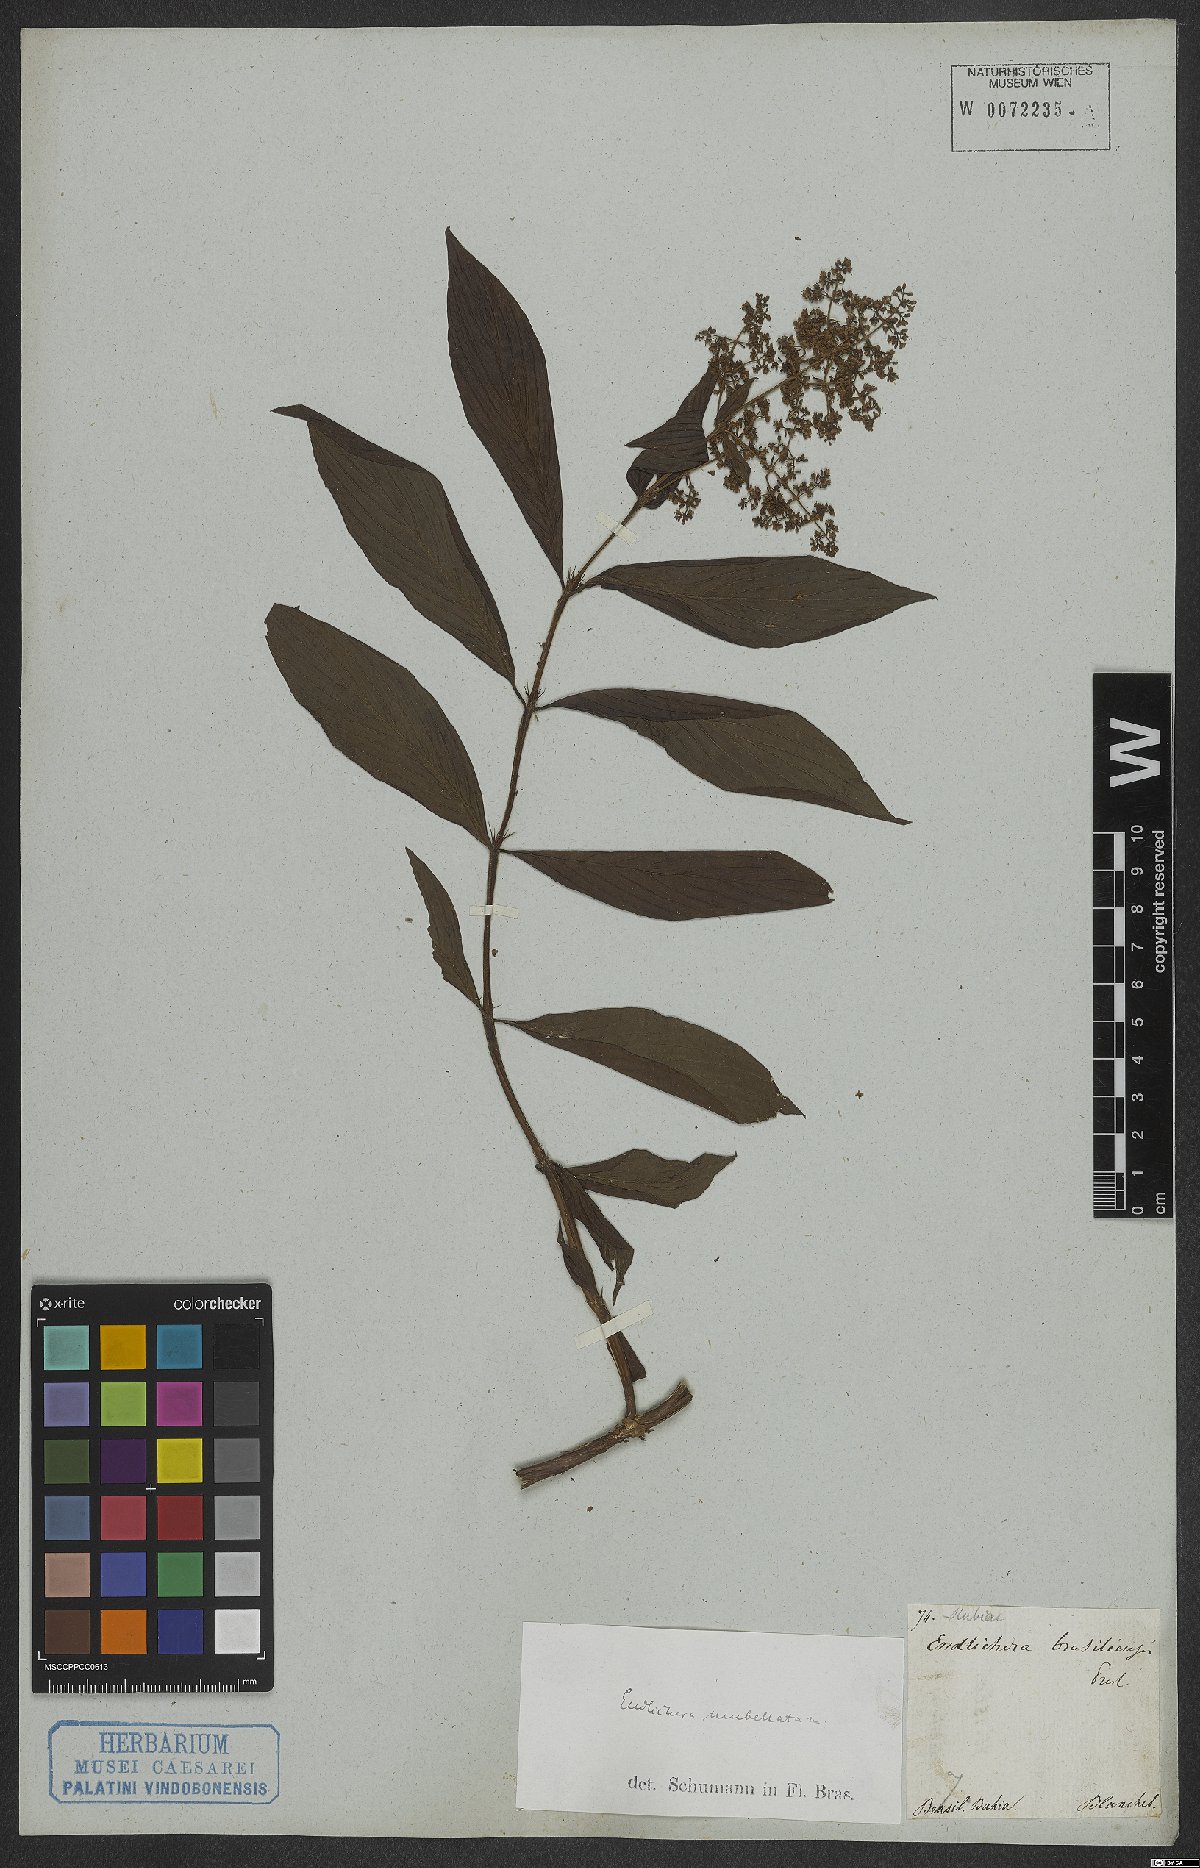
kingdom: Plantae
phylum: Tracheophyta
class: Magnoliopsida
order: Gentianales
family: Rubiaceae
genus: Emmeorhiza
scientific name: Emmeorhiza umbellata
